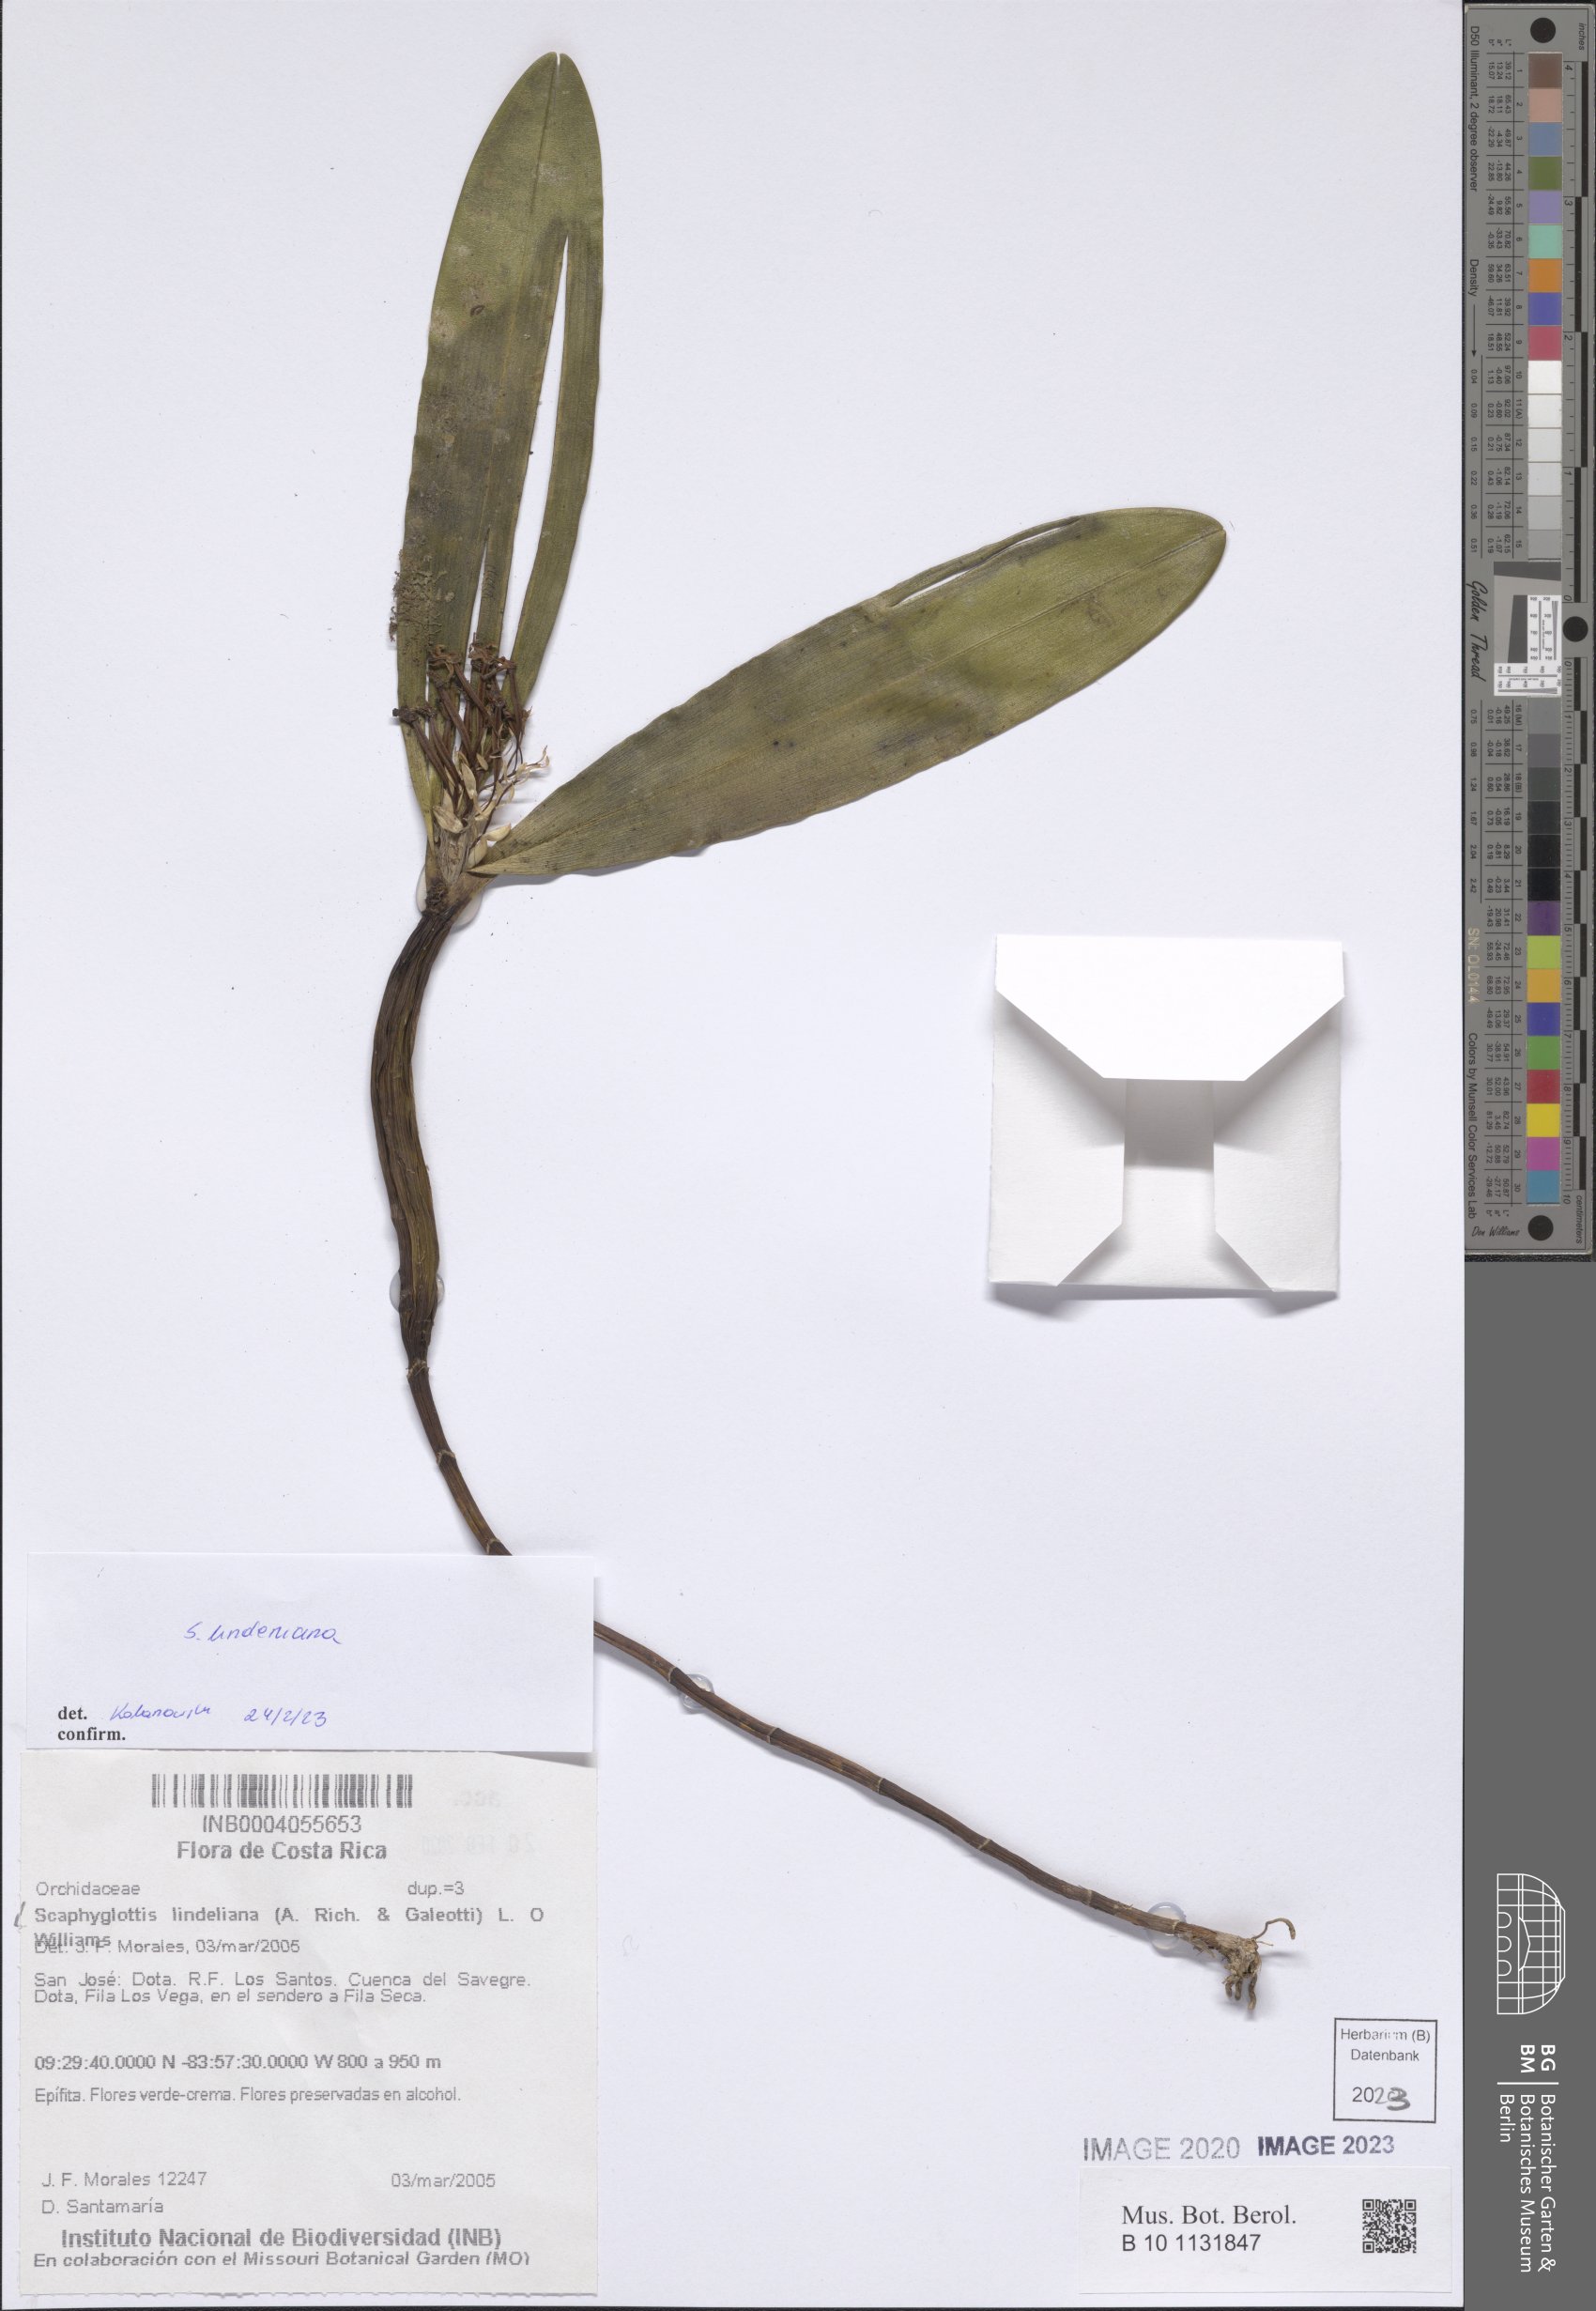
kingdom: Plantae
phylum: Tracheophyta
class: Liliopsida
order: Asparagales
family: Orchidaceae
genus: Scaphyglottis
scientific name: Scaphyglottis lindeniana
